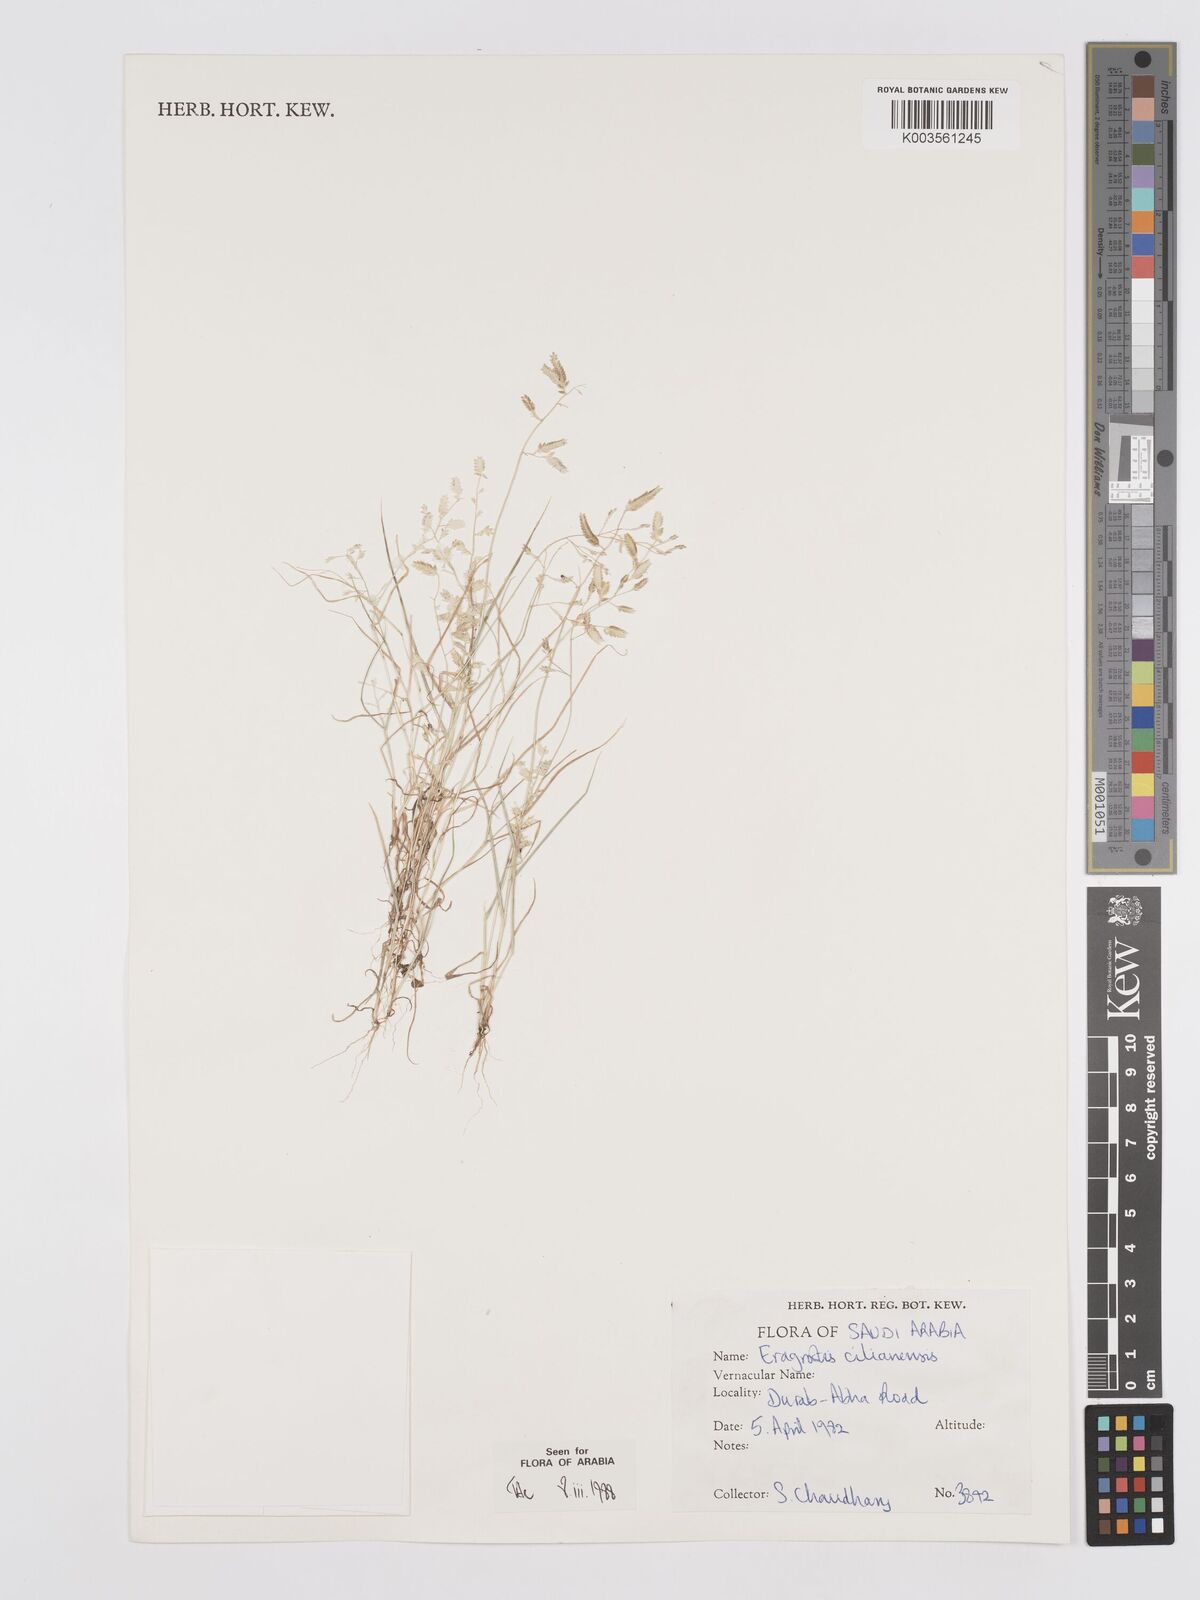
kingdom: Plantae
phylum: Tracheophyta
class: Liliopsida
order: Poales
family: Poaceae
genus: Eragrostis
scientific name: Eragrostis cilianensis
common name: Stinkgrass
